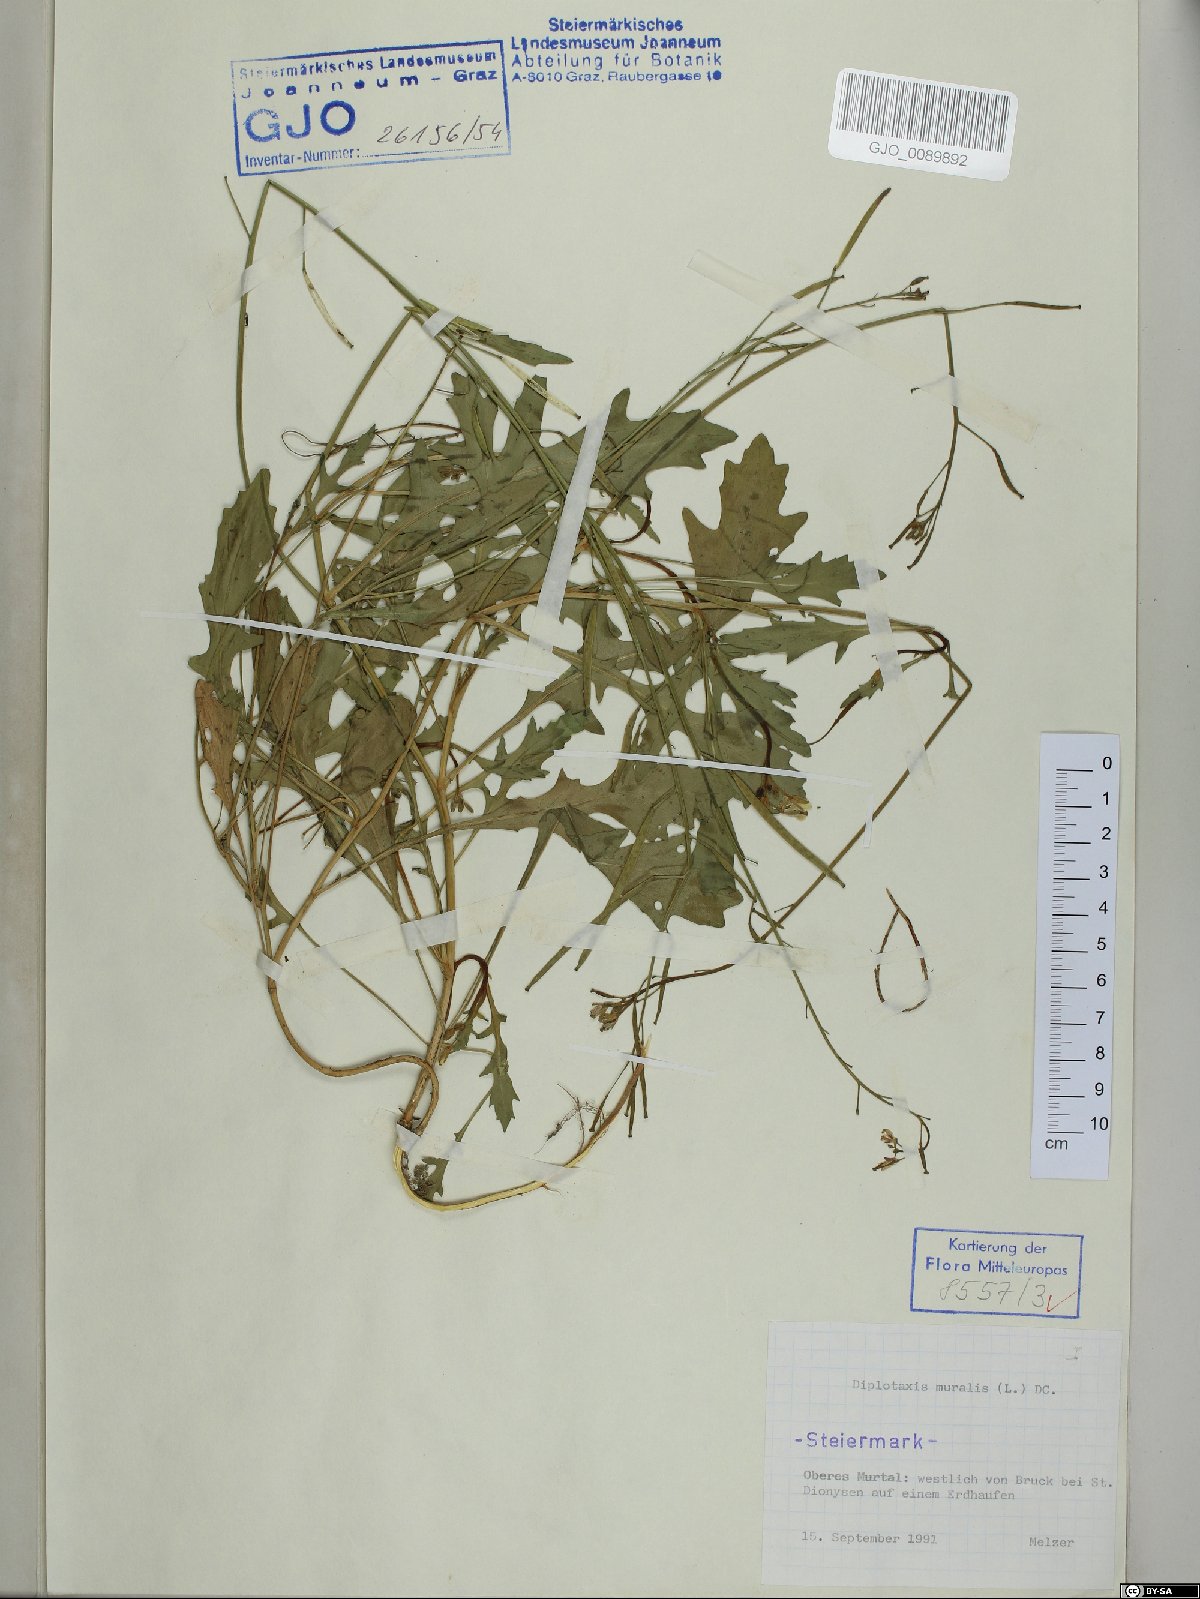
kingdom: Plantae
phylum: Tracheophyta
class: Magnoliopsida
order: Brassicales
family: Brassicaceae
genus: Diplotaxis
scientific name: Diplotaxis muralis
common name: Annual wall-rocket
